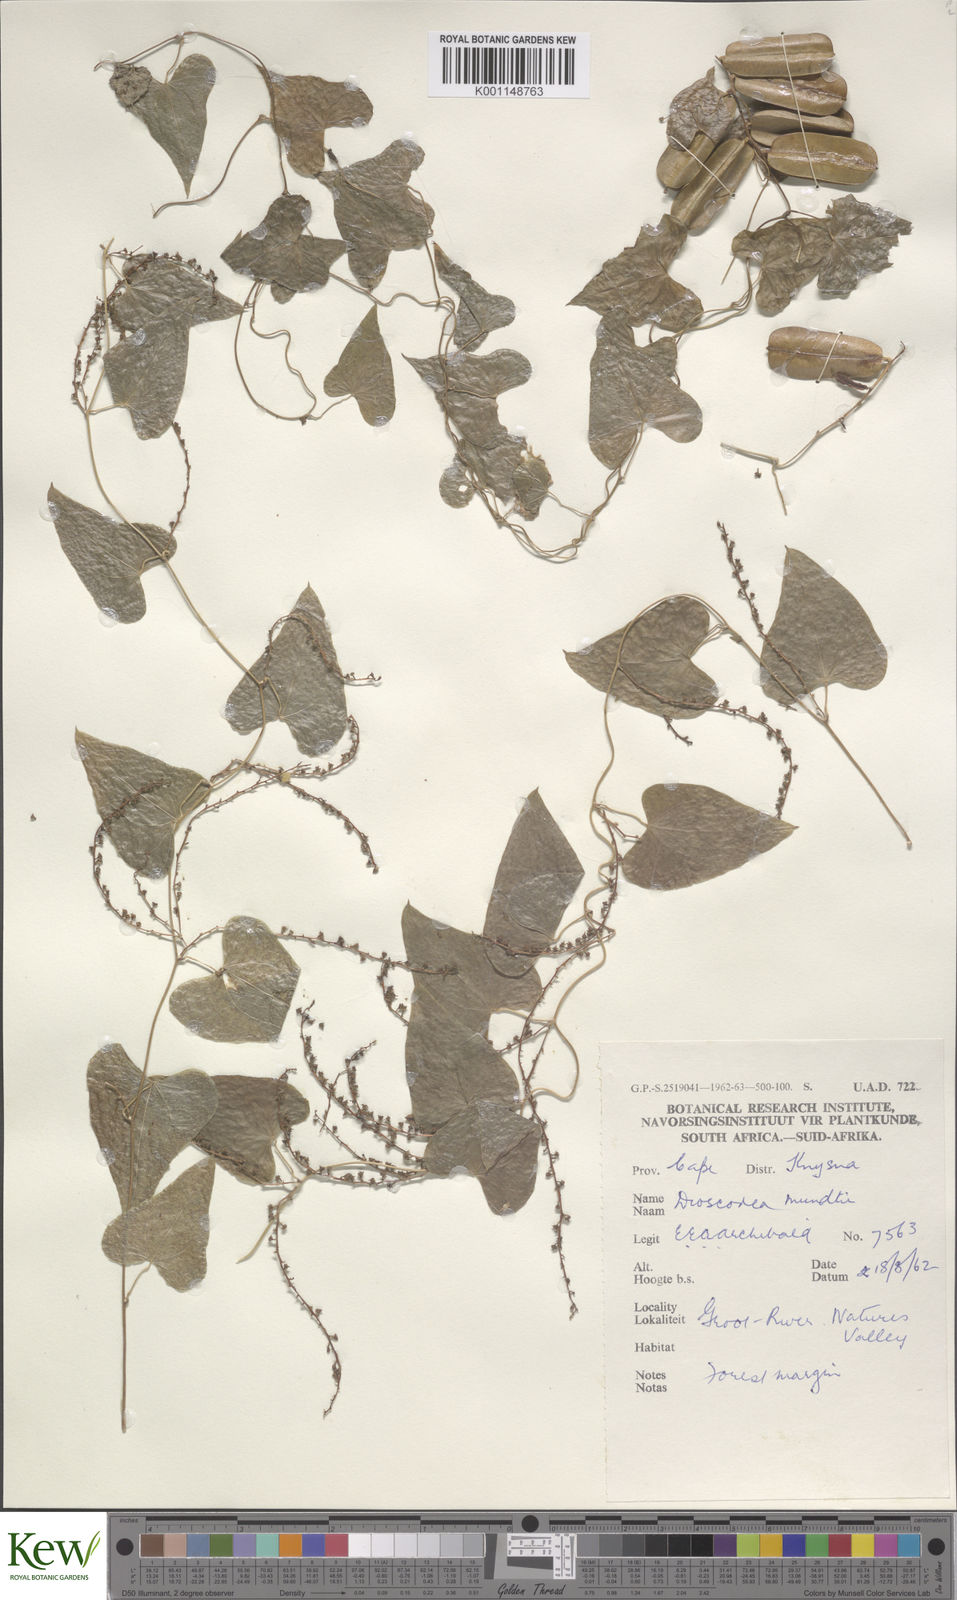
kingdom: Plantae
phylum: Tracheophyta
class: Liliopsida
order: Dioscoreales
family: Dioscoreaceae
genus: Dioscorea
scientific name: Dioscorea mundii
